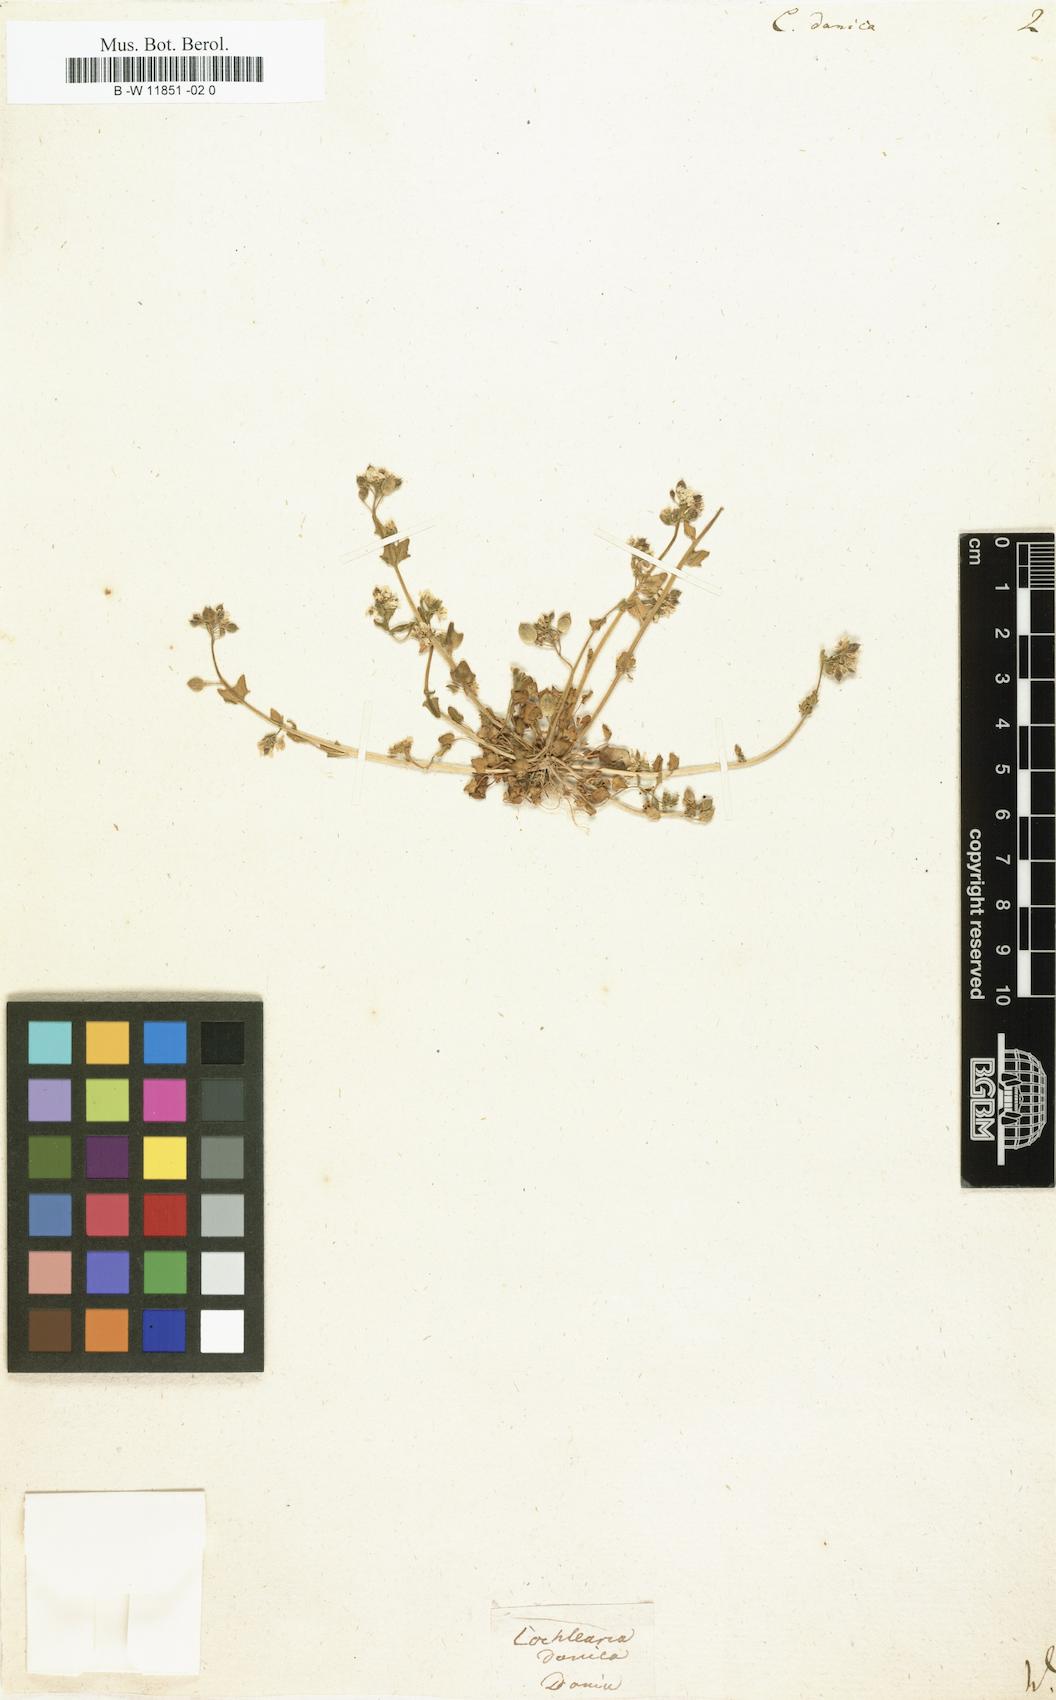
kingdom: Plantae
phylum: Tracheophyta
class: Magnoliopsida
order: Brassicales
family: Brassicaceae
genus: Cochlearia
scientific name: Cochlearia danica
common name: Early scurvygrass
